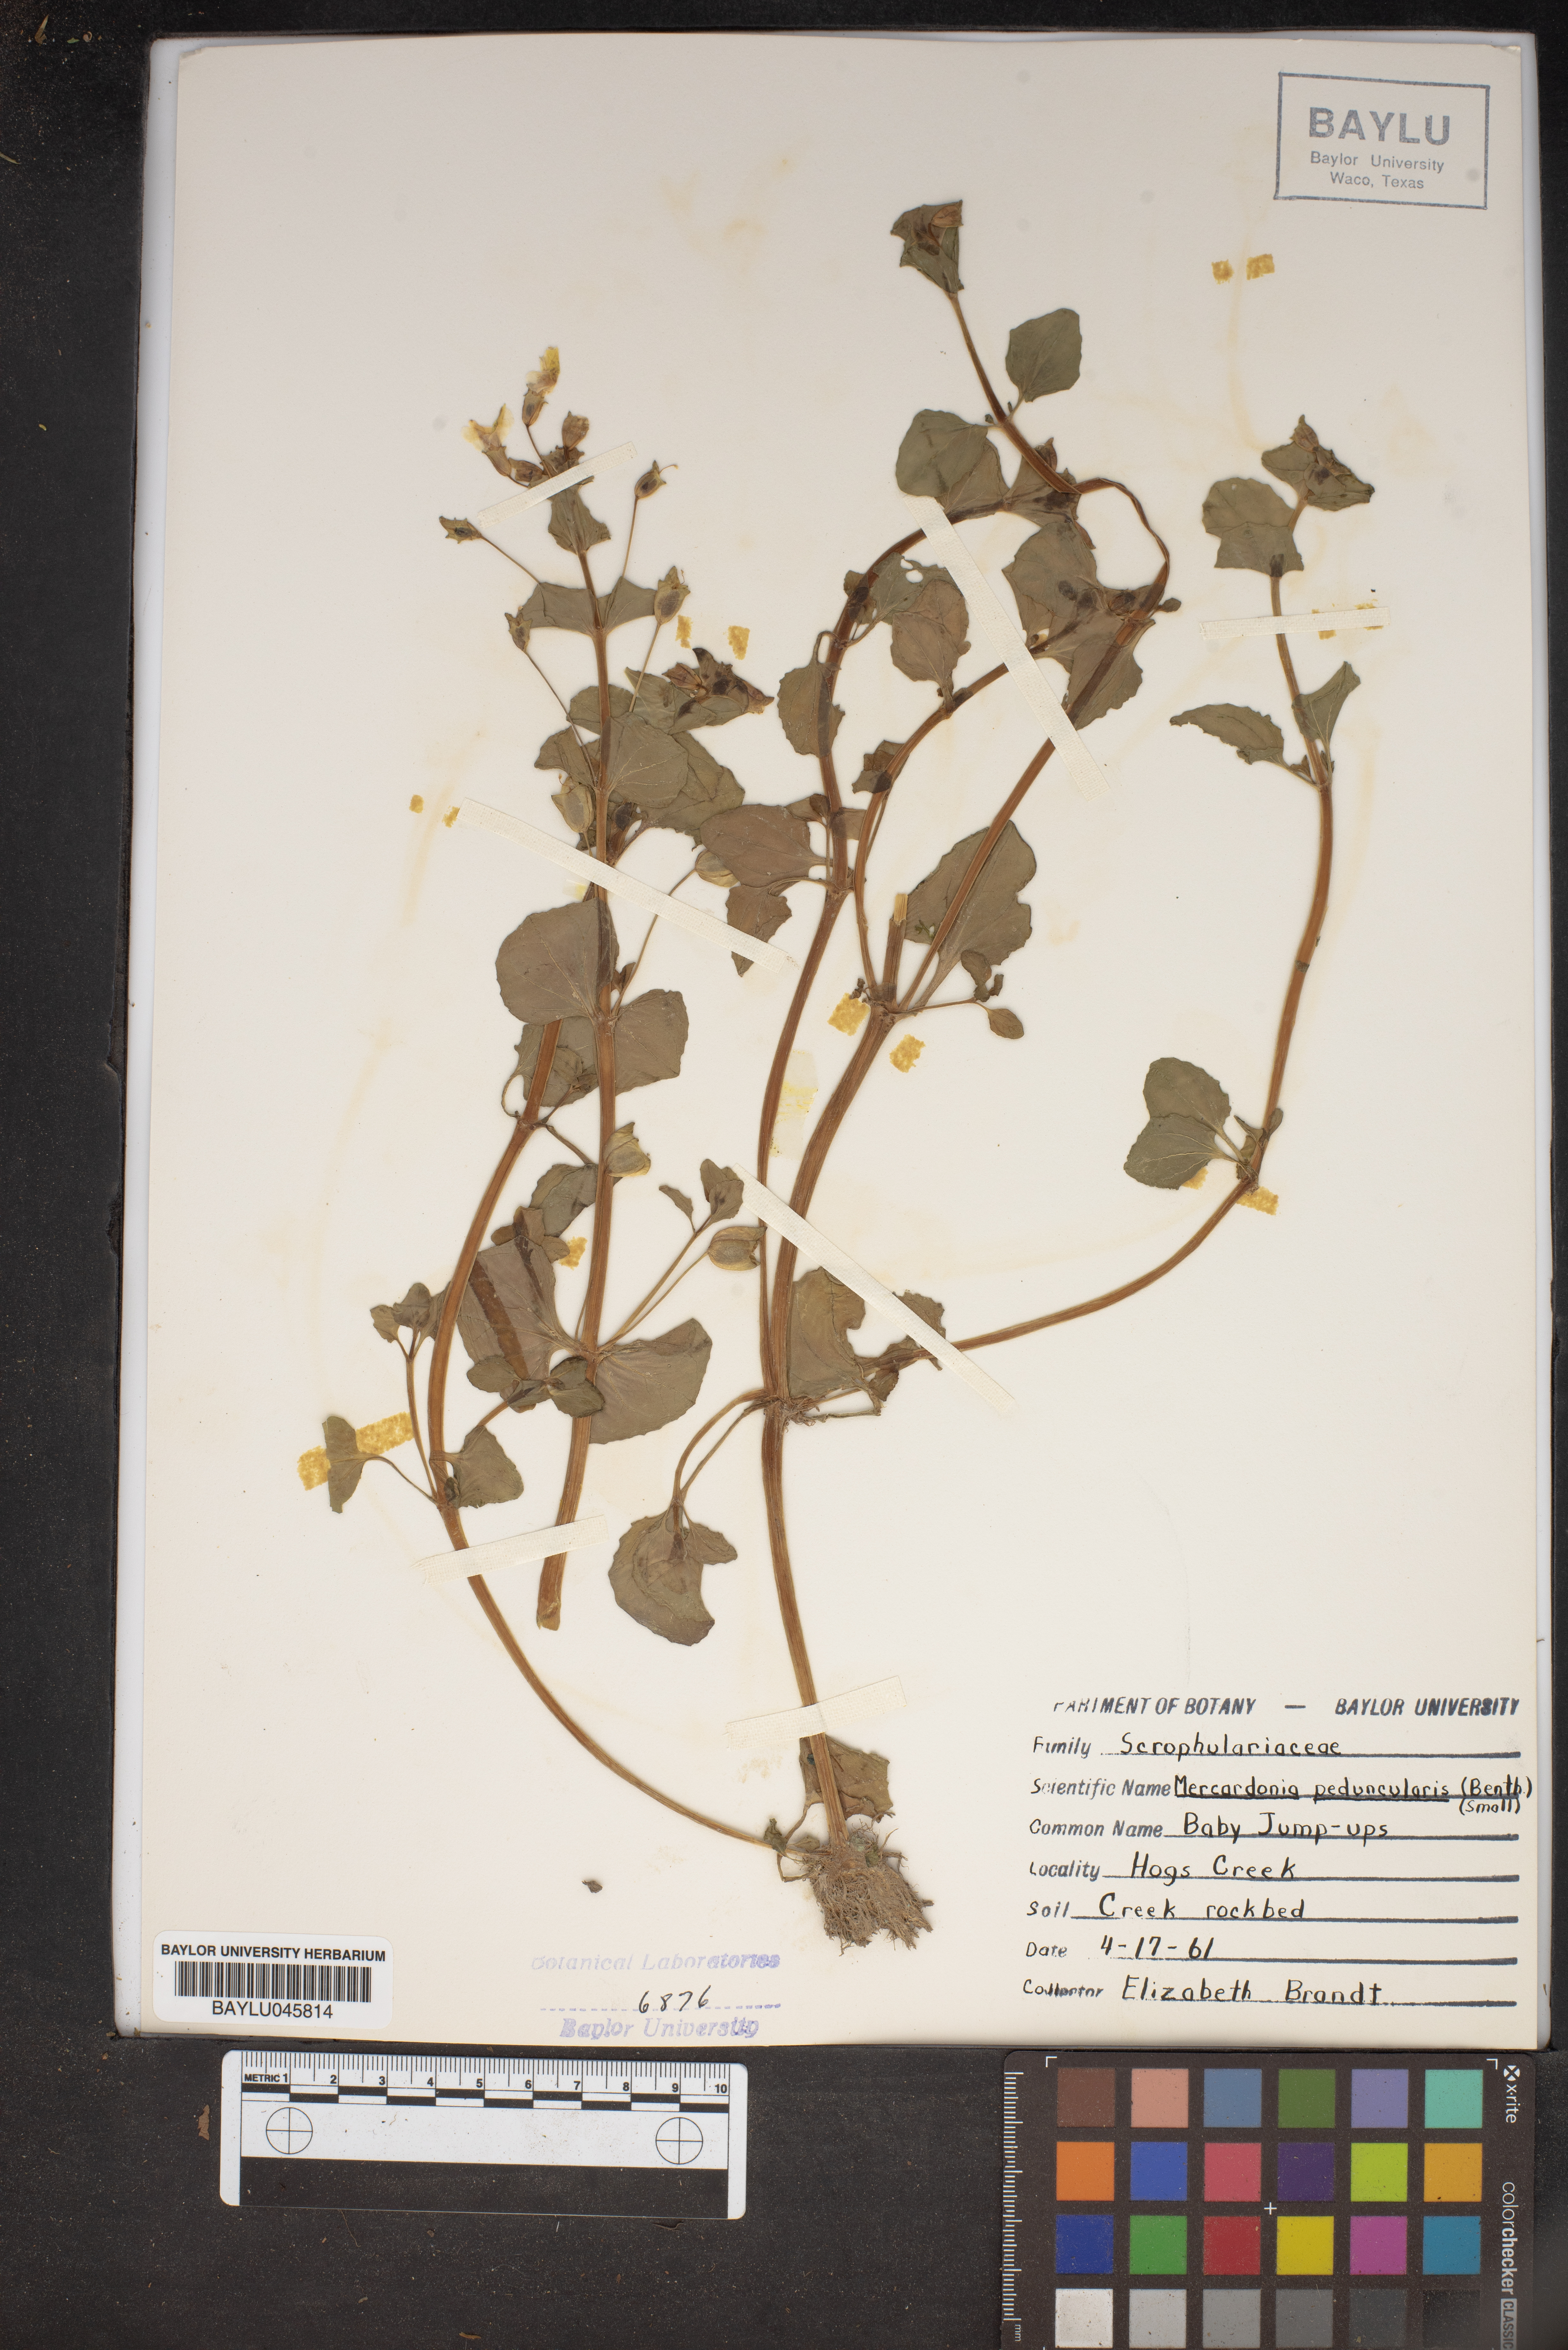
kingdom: Plantae
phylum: Tracheophyta
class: Magnoliopsida
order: Lamiales
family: Plantaginaceae
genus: Mecardonia
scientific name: Mecardonia procumbens
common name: Baby jump-up
